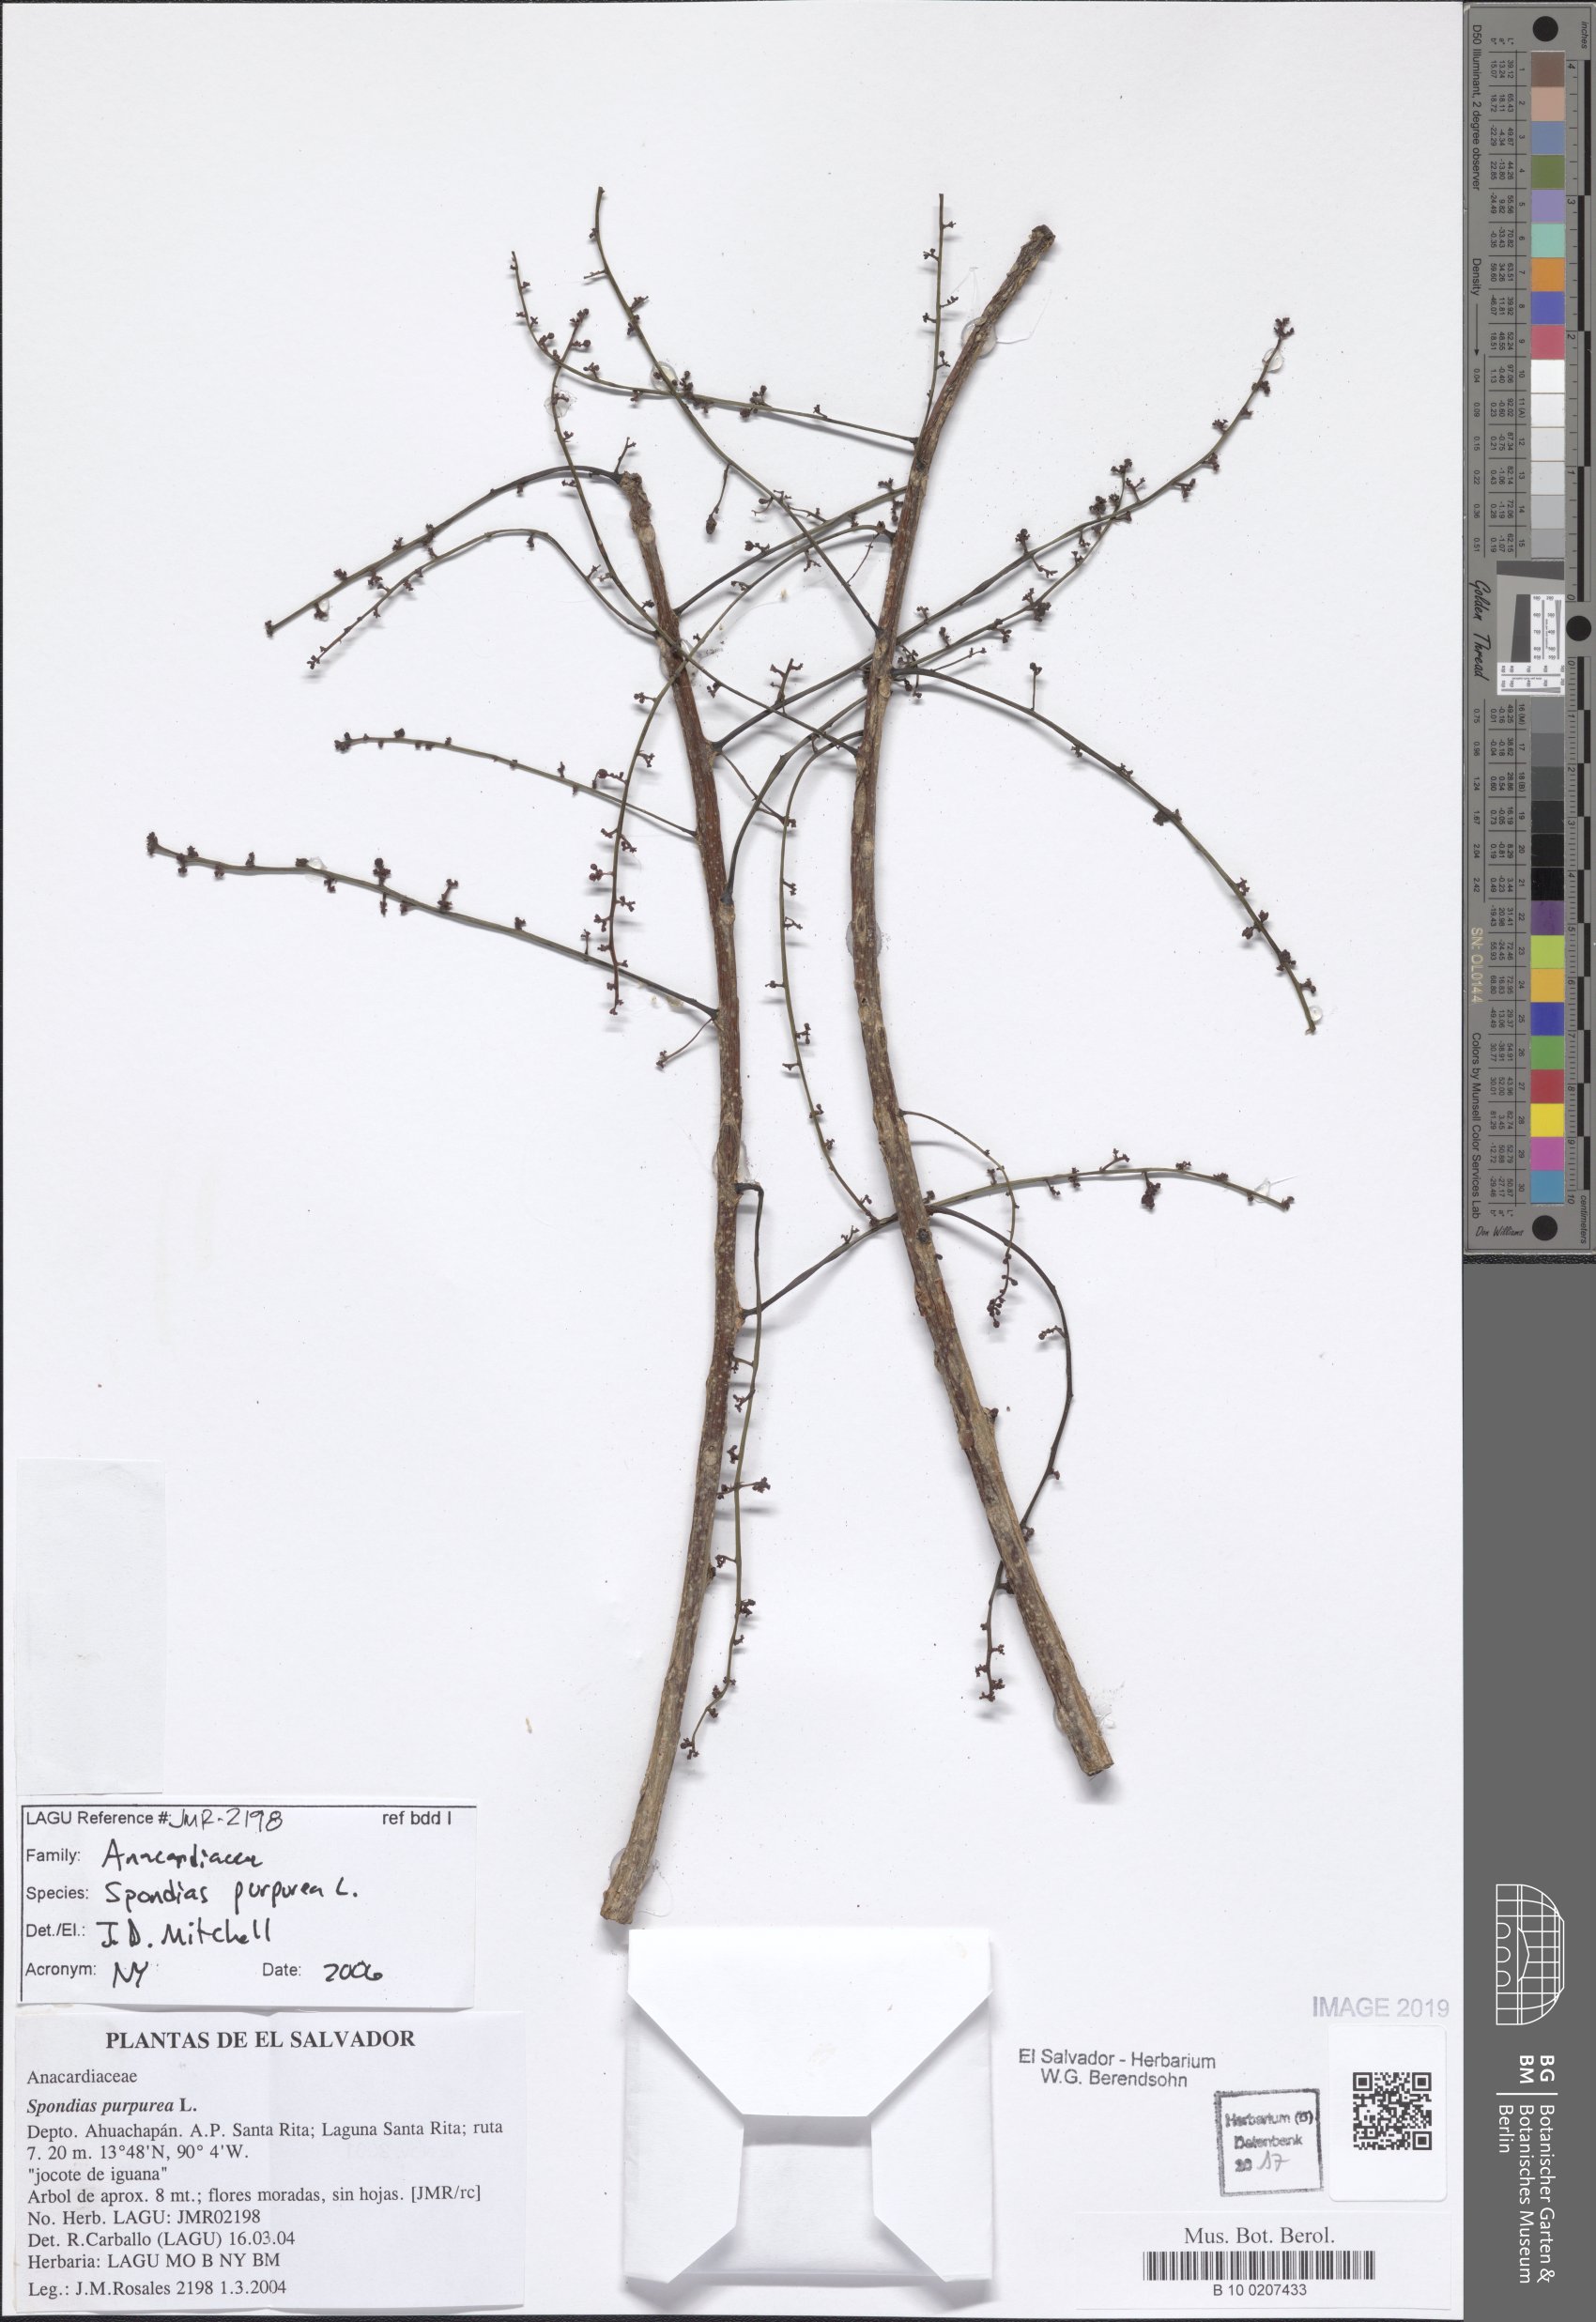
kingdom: Plantae
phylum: Tracheophyta
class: Magnoliopsida
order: Sapindales
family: Anacardiaceae
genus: Spondias
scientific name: Spondias purpurea
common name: Purple mombin
